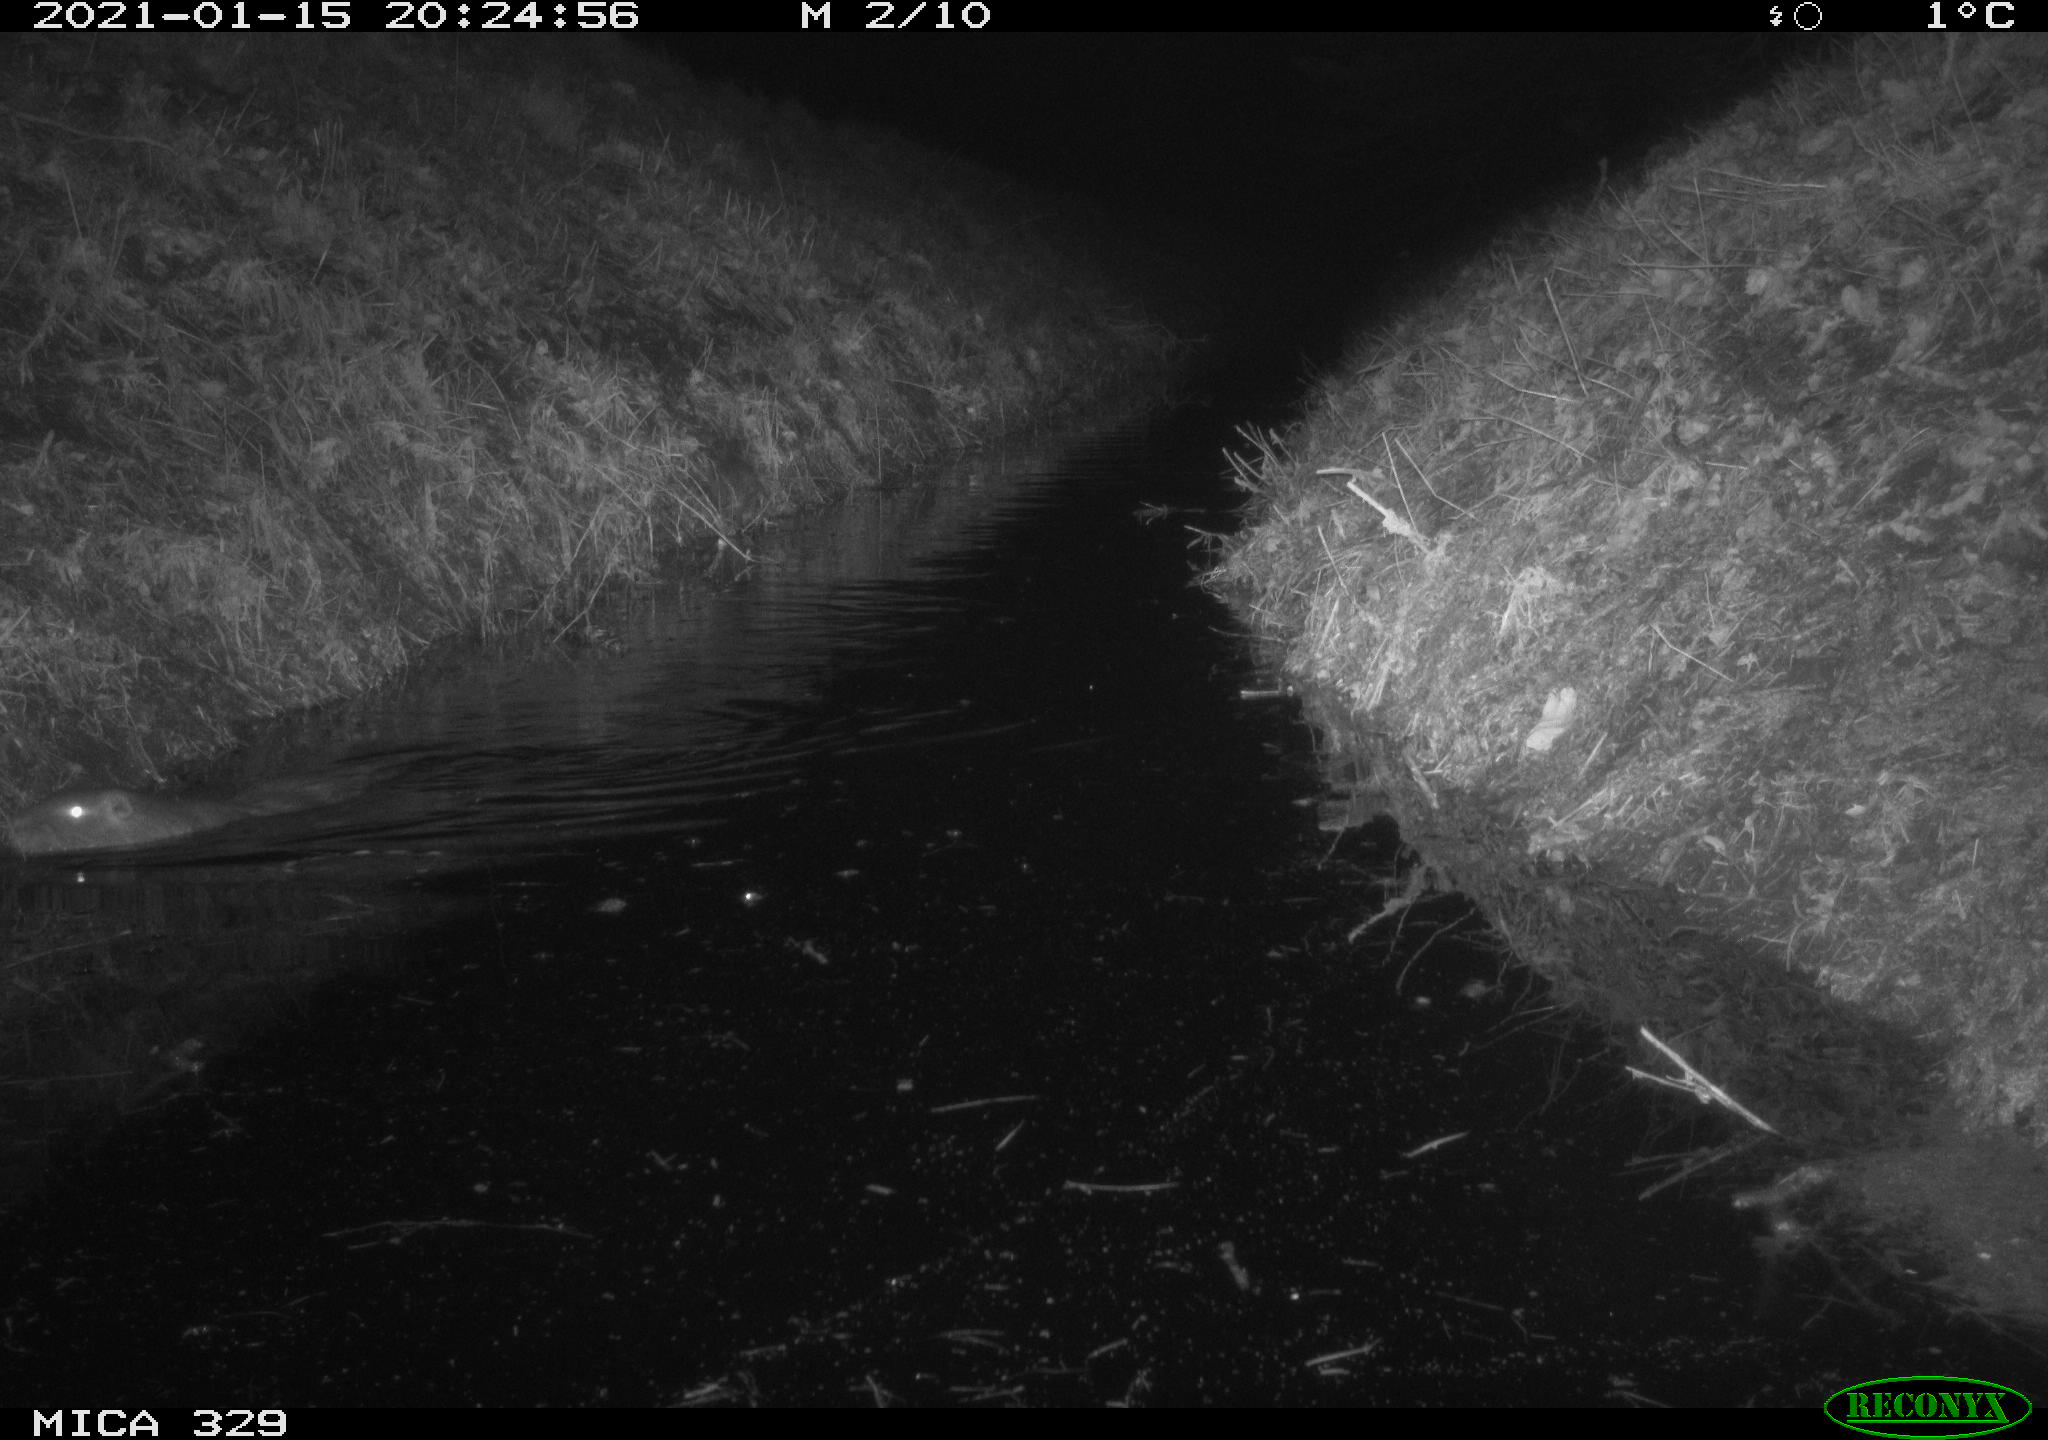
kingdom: Animalia
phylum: Chordata
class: Mammalia
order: Rodentia
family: Myocastoridae
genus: Myocastor
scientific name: Myocastor coypus
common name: Coypu
